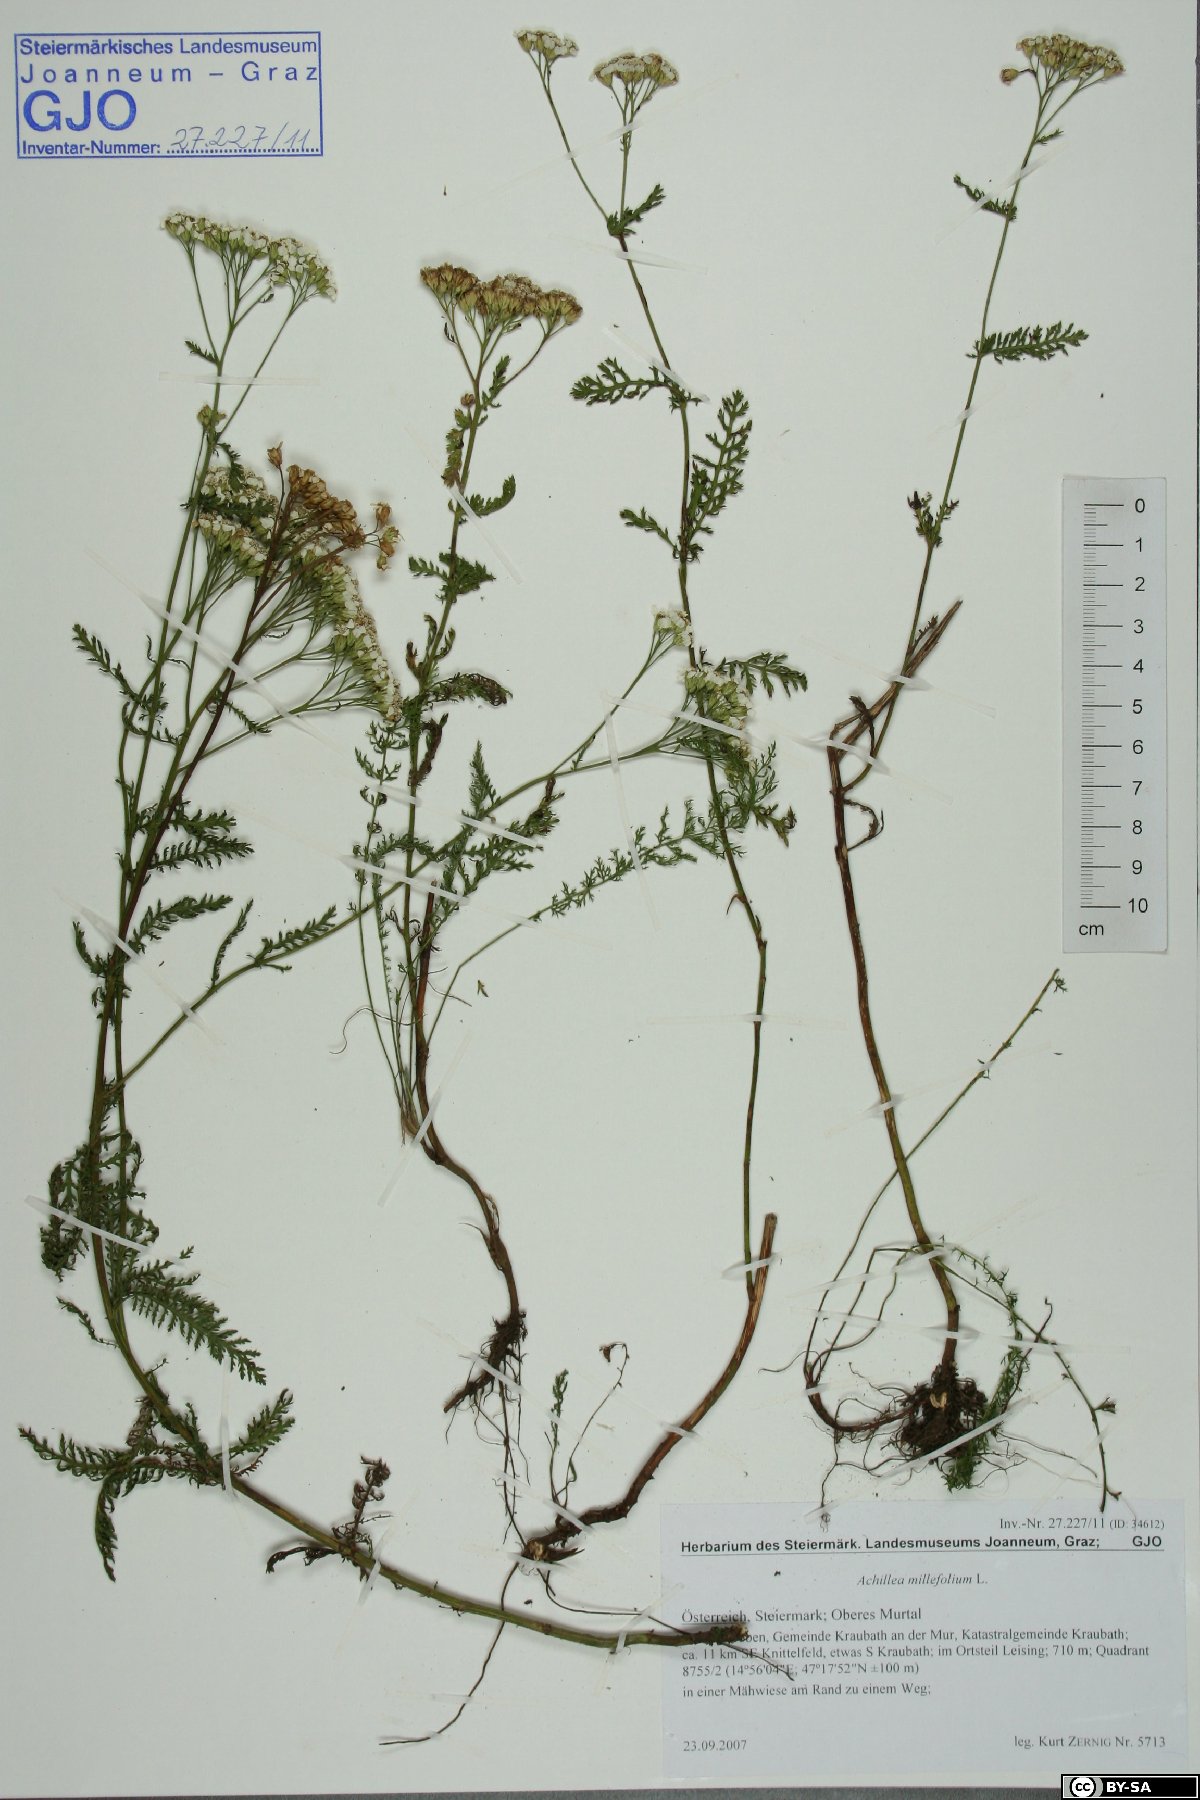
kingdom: Plantae
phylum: Tracheophyta
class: Magnoliopsida
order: Asterales
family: Asteraceae
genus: Achillea
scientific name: Achillea millefolium
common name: Yarrow
